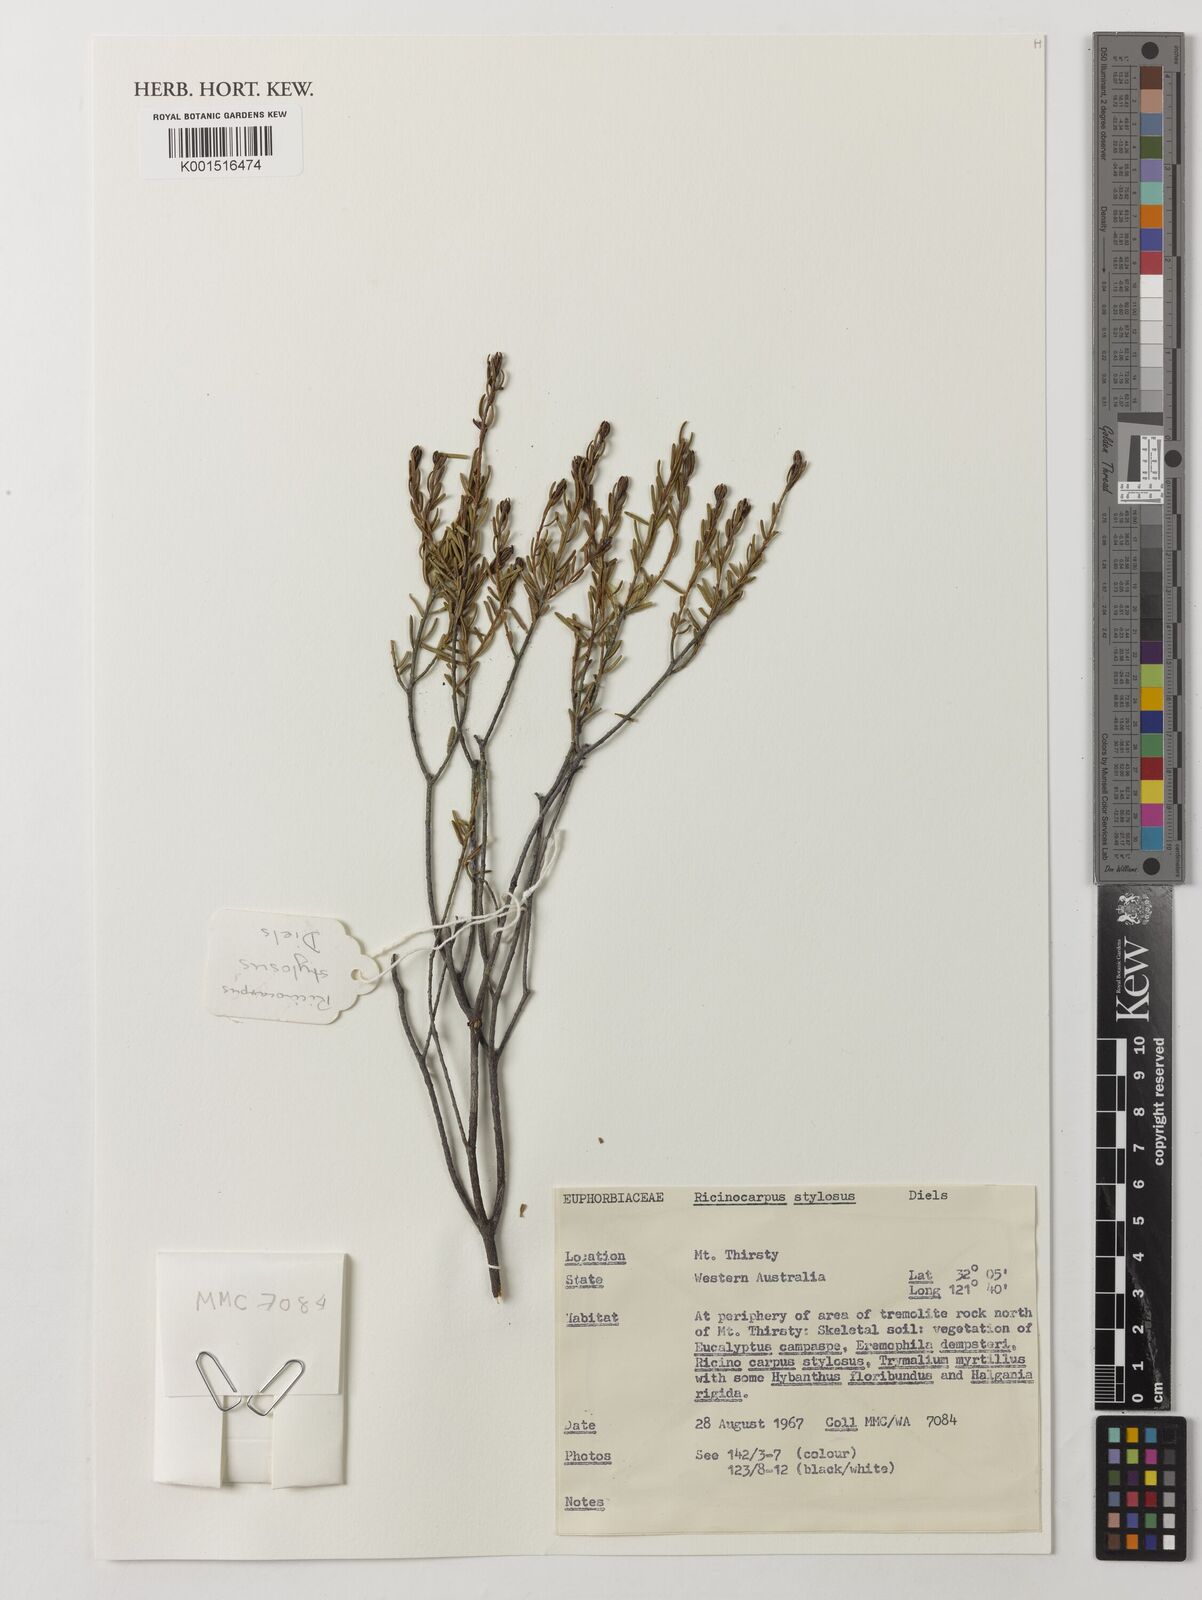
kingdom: Plantae
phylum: Tracheophyta
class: Magnoliopsida
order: Malpighiales
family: Euphorbiaceae
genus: Ricinocarpos
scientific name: Ricinocarpos stylosus
